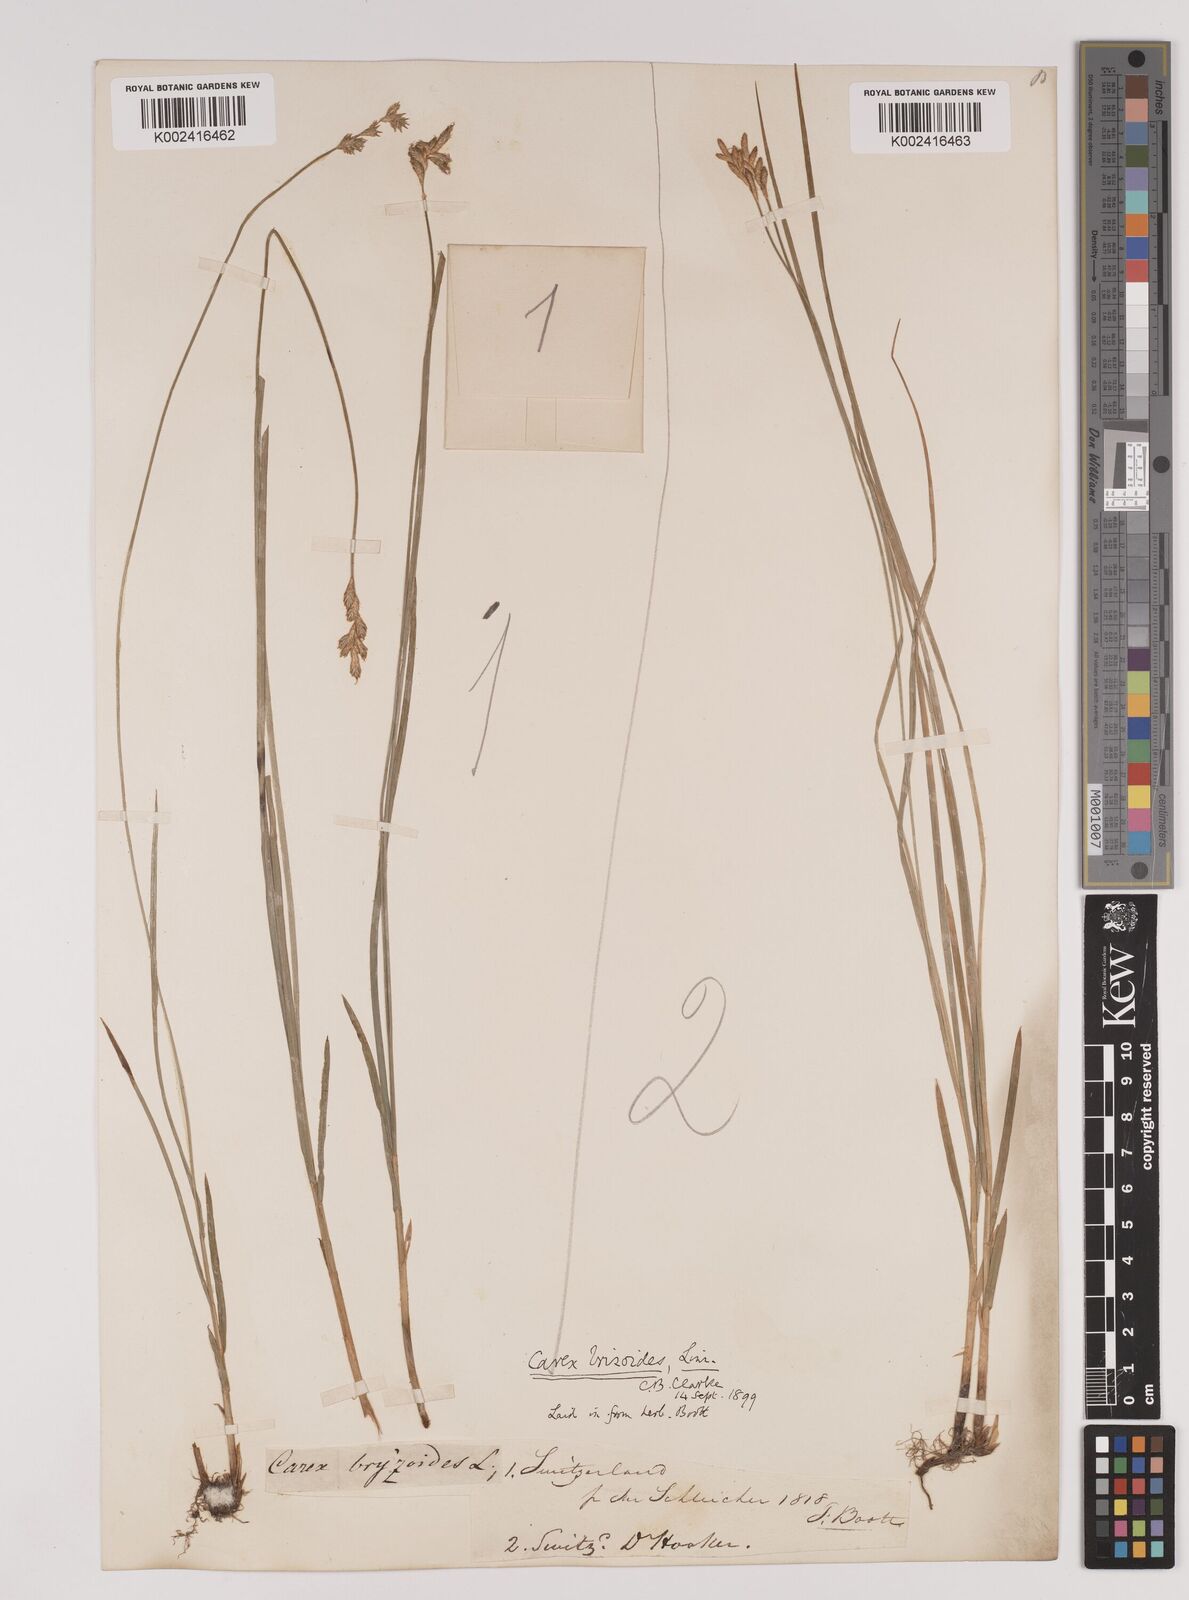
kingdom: Plantae
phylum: Tracheophyta
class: Liliopsida
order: Poales
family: Cyperaceae
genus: Carex
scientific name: Carex brizoides
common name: Quaking-grass sedge
